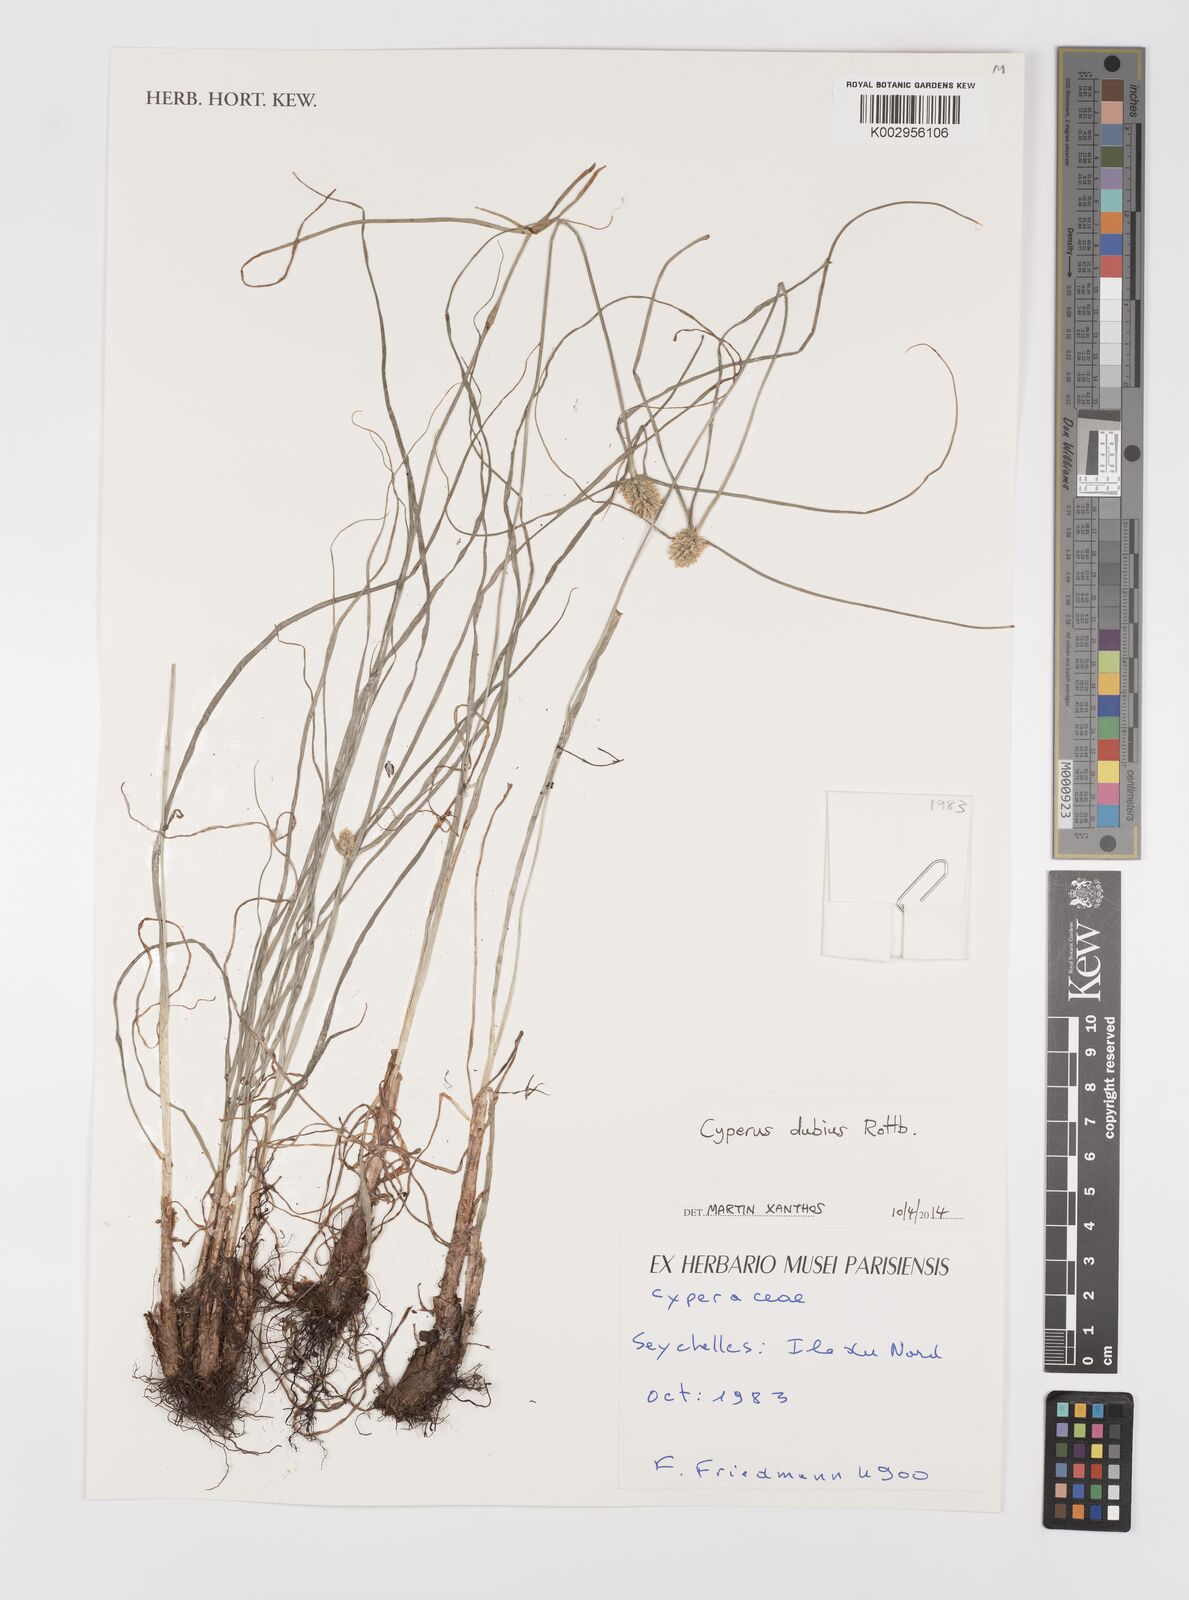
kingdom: Plantae
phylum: Tracheophyta
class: Liliopsida
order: Poales
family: Cyperaceae
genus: Cyperus
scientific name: Cyperus dubius
